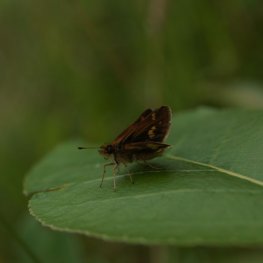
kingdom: Animalia
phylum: Arthropoda
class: Insecta
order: Lepidoptera
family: Hesperiidae
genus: Polites
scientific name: Polites coras
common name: Peck's Skipper
